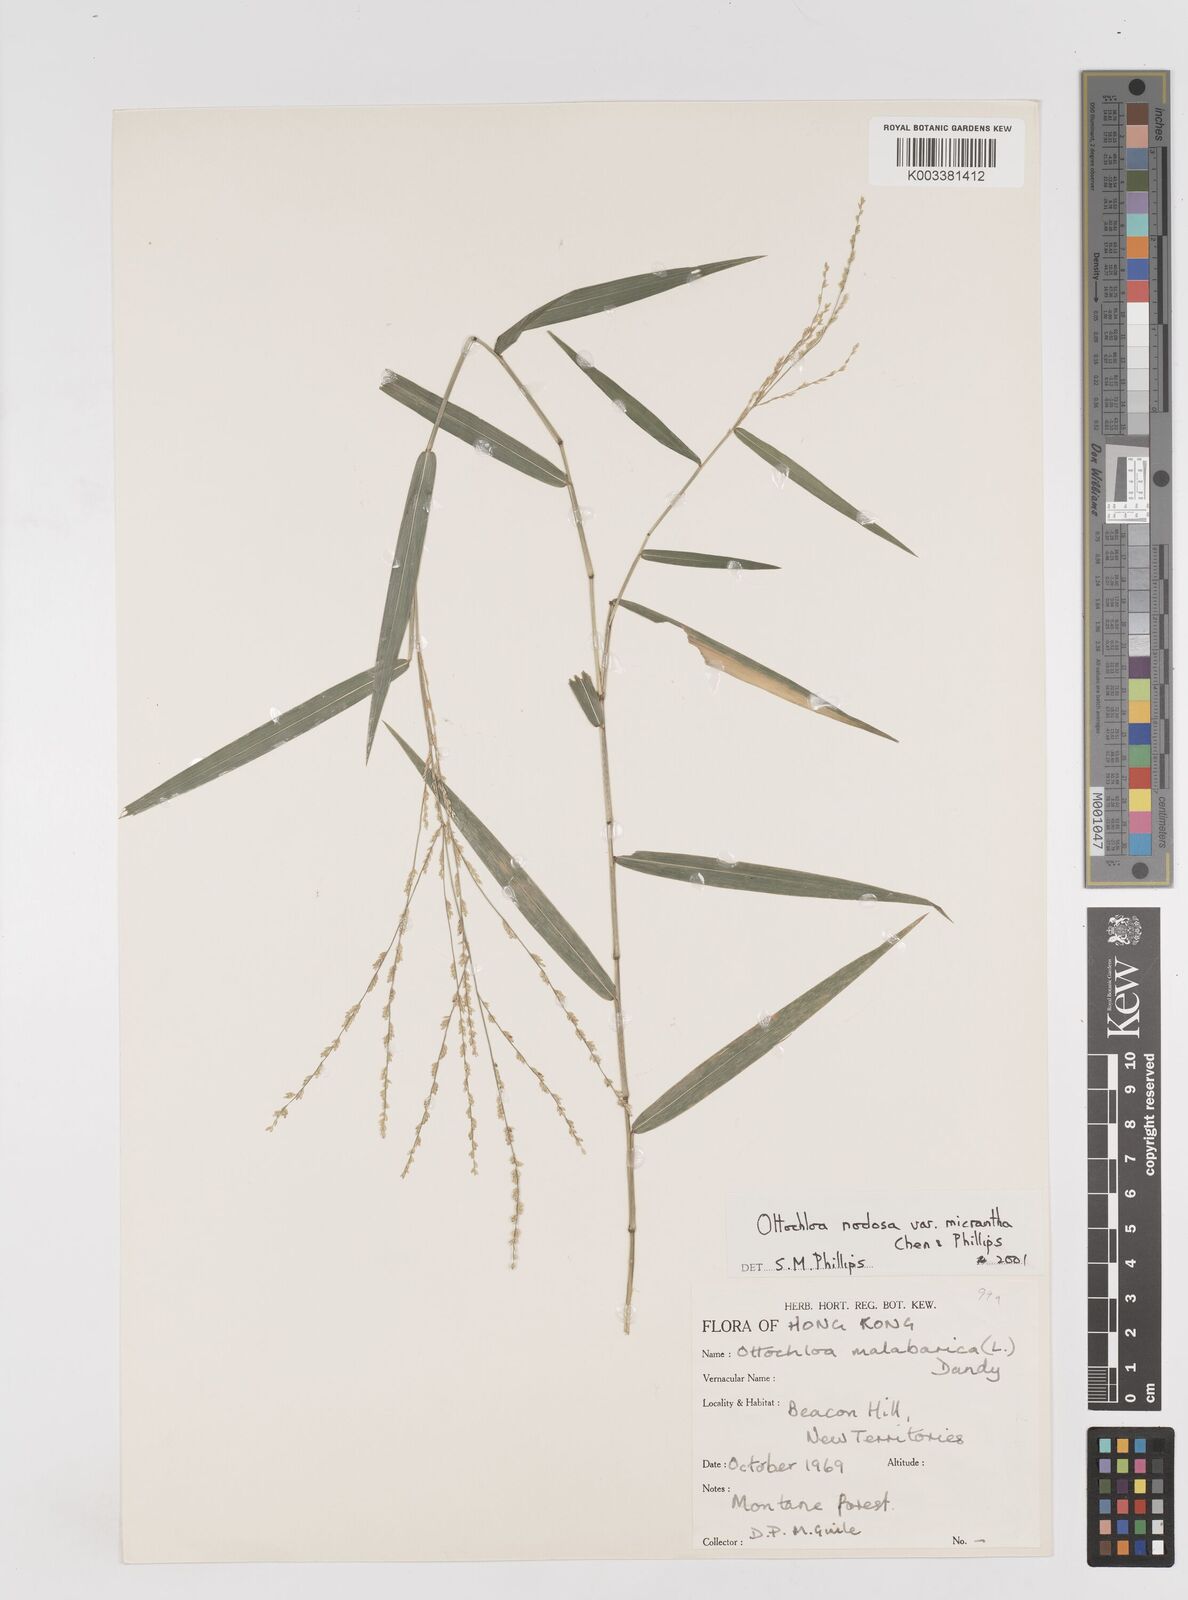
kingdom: Plantae
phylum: Tracheophyta
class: Liliopsida
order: Poales
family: Poaceae
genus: Ottochloa
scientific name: Ottochloa nodosa
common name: Slender-panic grass
